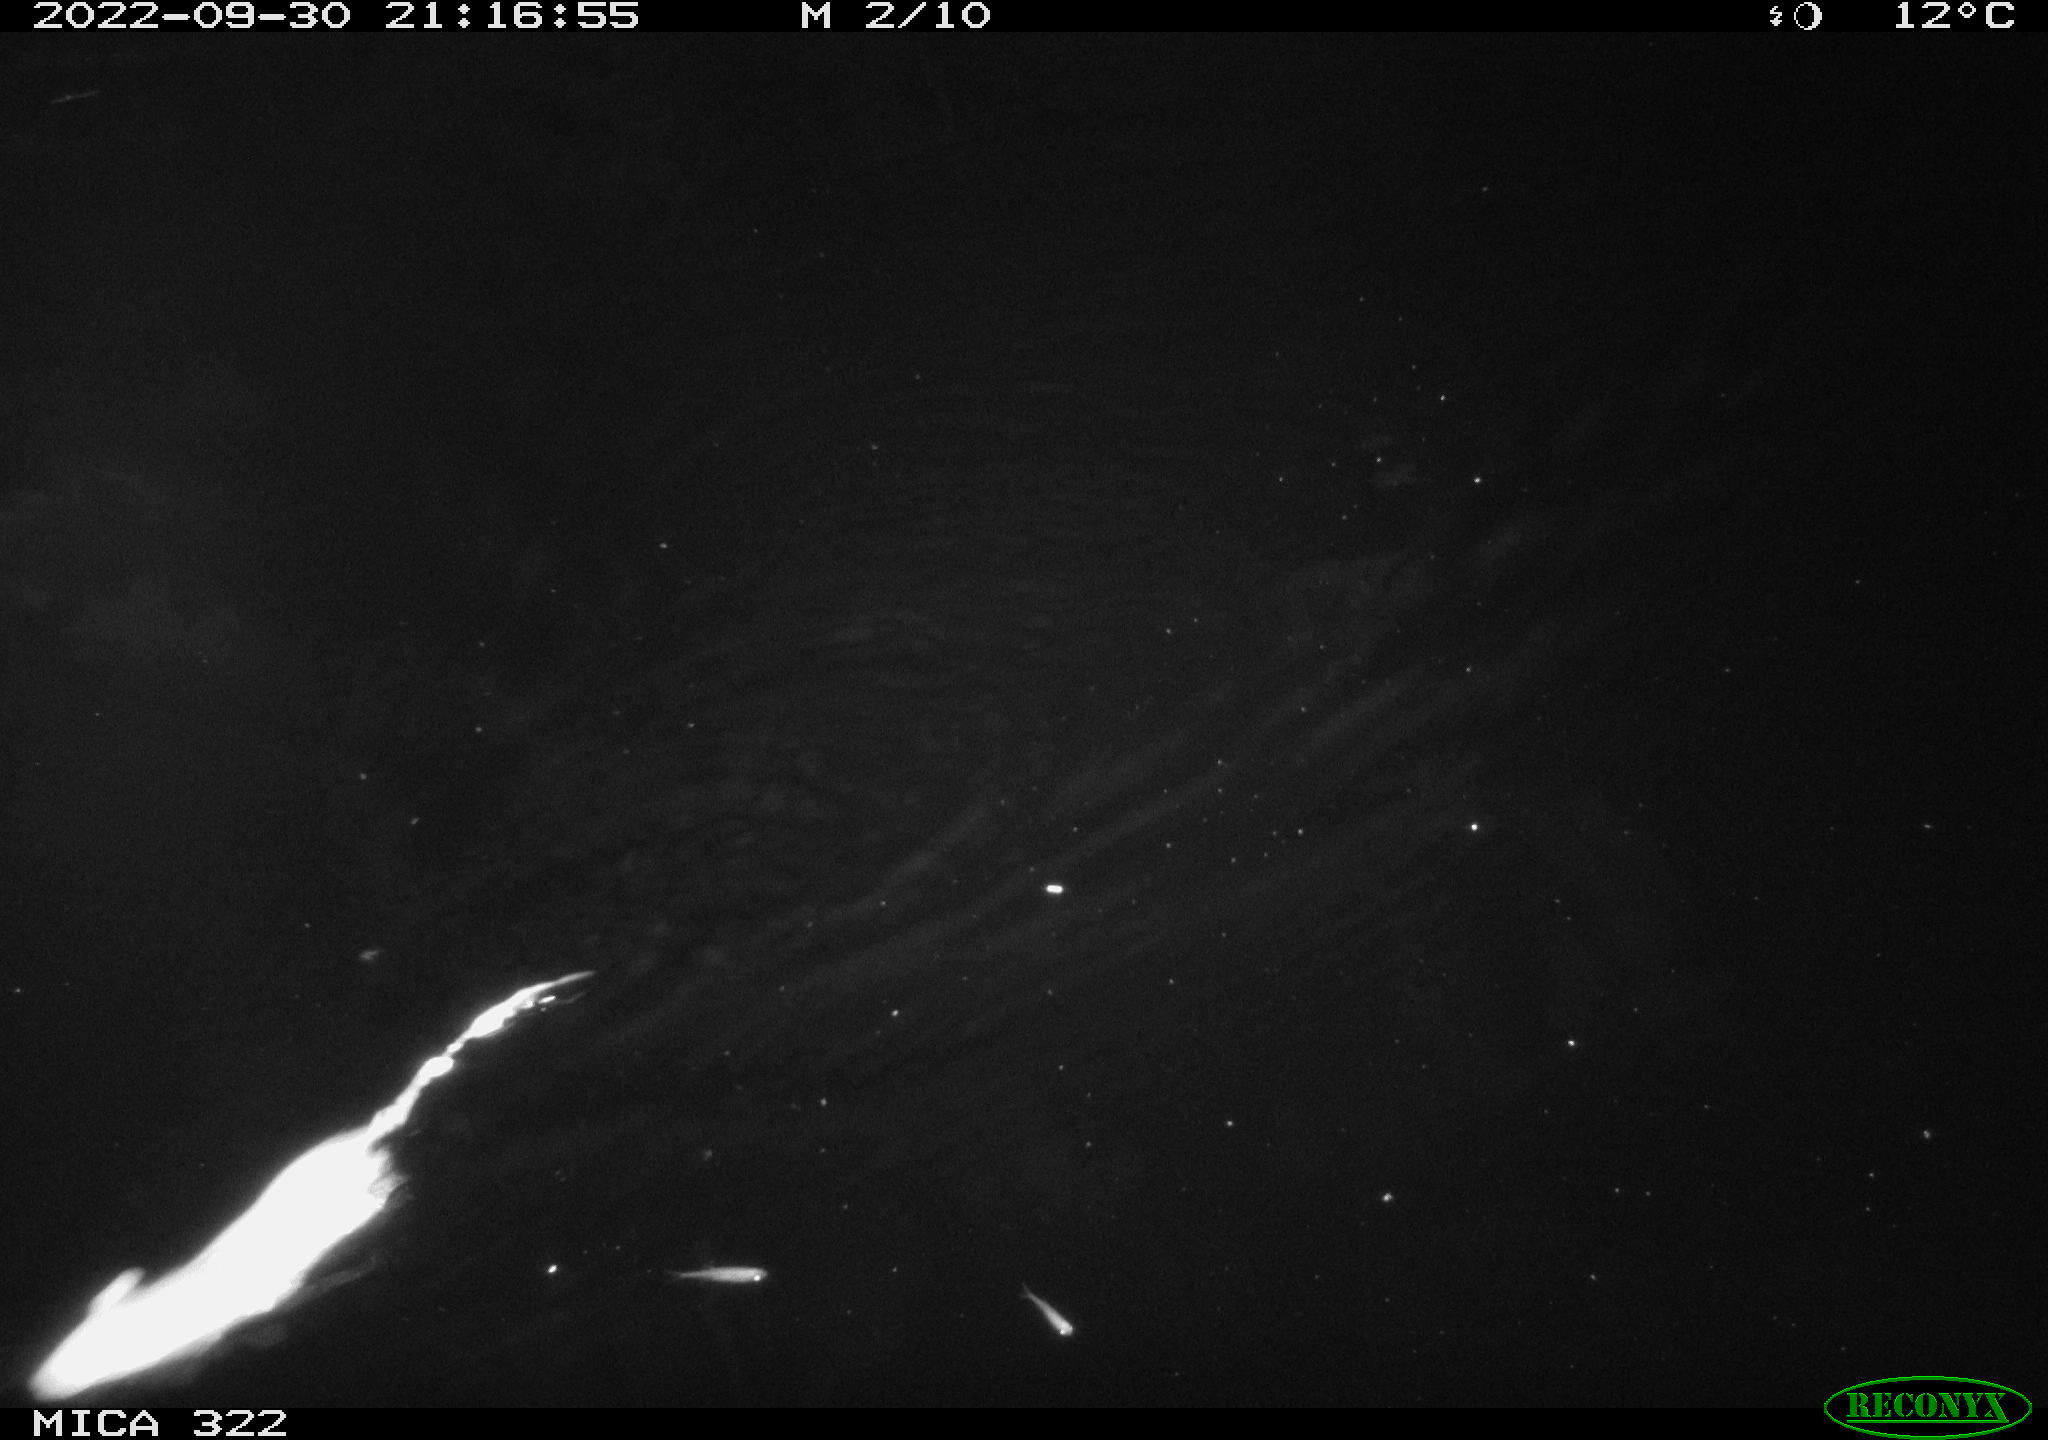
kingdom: Animalia
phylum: Chordata
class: Mammalia
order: Rodentia
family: Cricetidae
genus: Ondatra
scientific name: Ondatra zibethicus
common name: Muskrat
